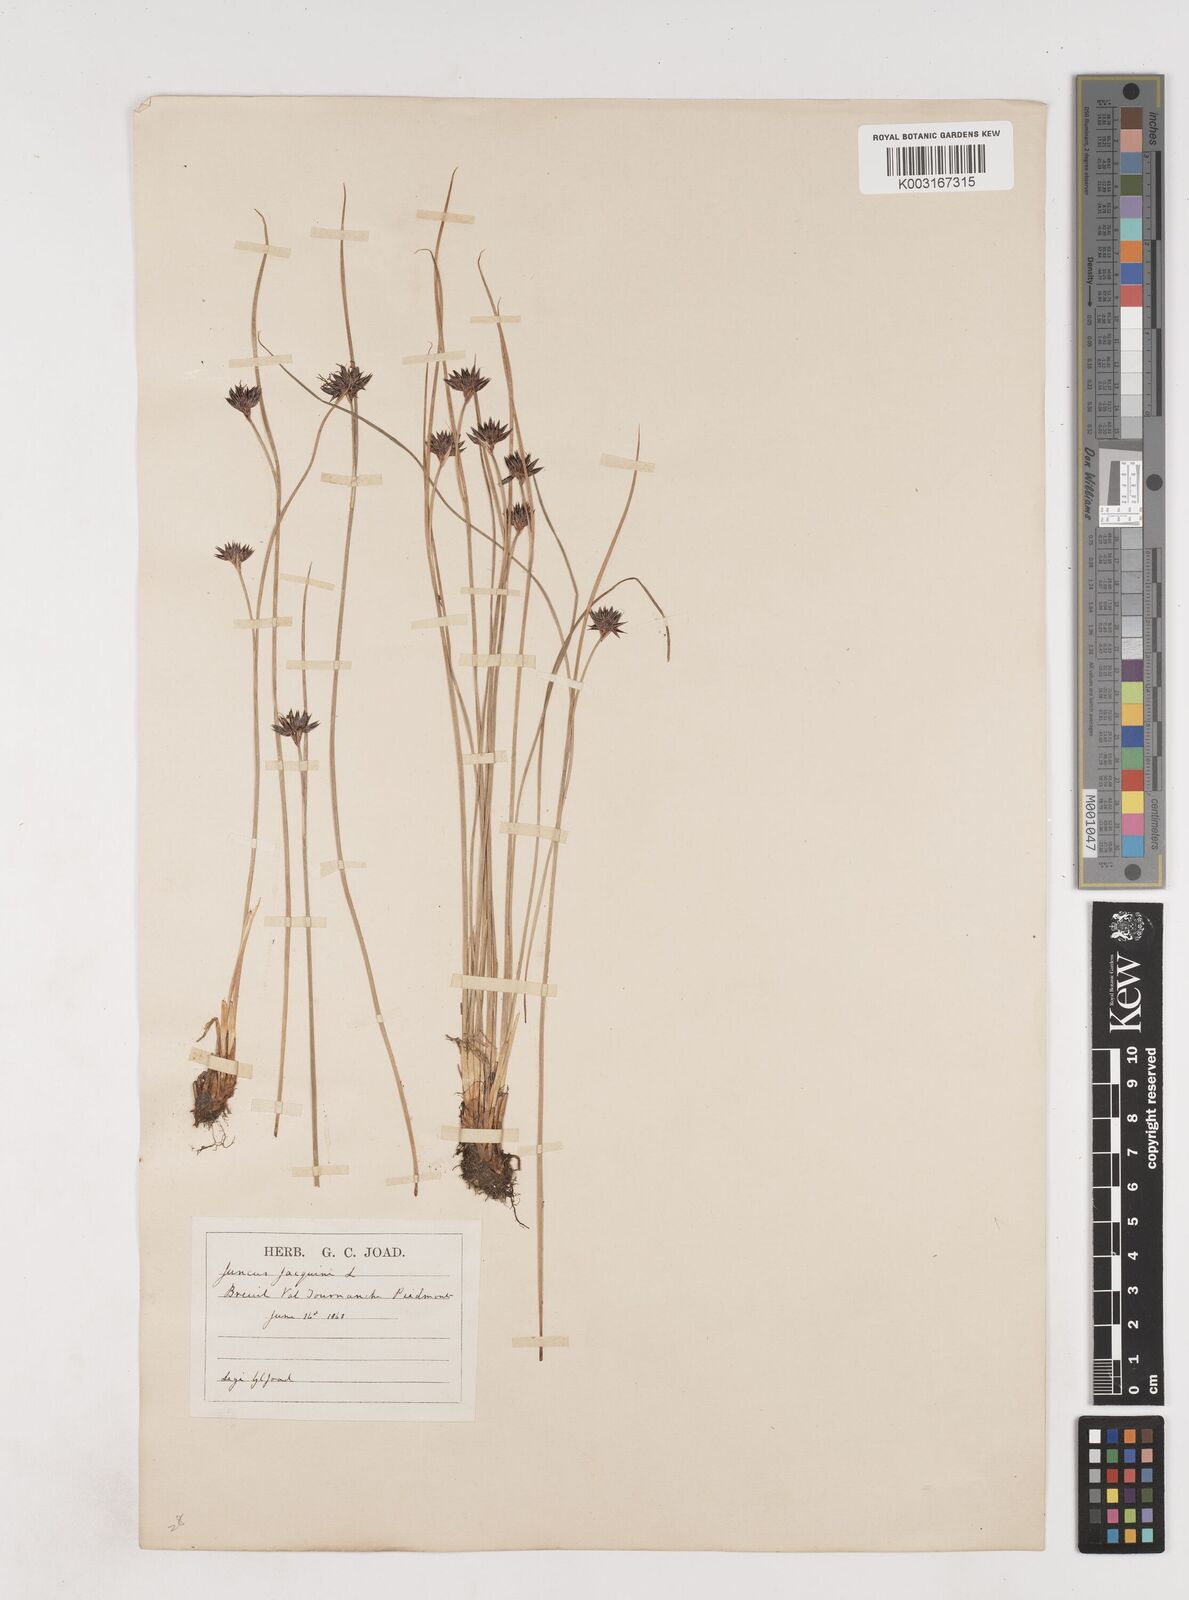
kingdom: Plantae
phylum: Tracheophyta
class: Liliopsida
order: Poales
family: Juncaceae
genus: Juncus
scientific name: Juncus jacquinii
